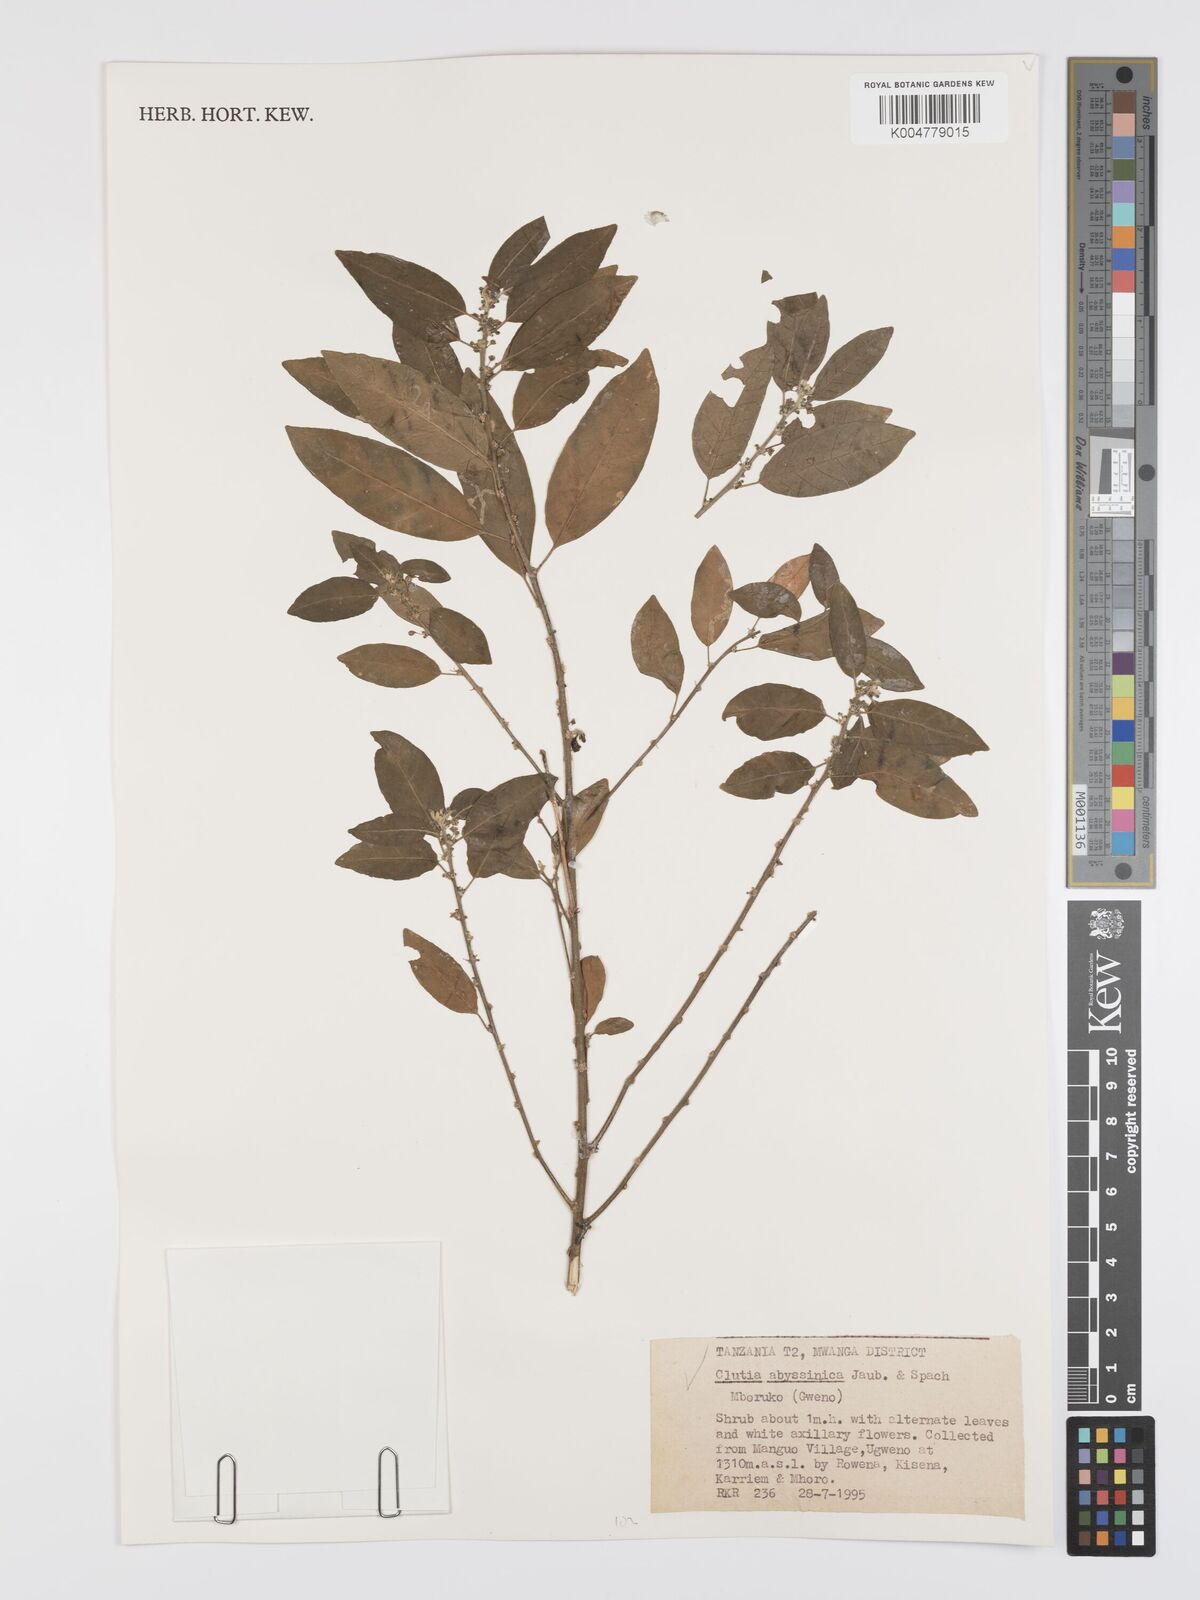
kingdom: Plantae
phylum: Tracheophyta
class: Magnoliopsida
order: Malpighiales
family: Peraceae
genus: Clutia
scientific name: Clutia abyssinica
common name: Large lightning bush
